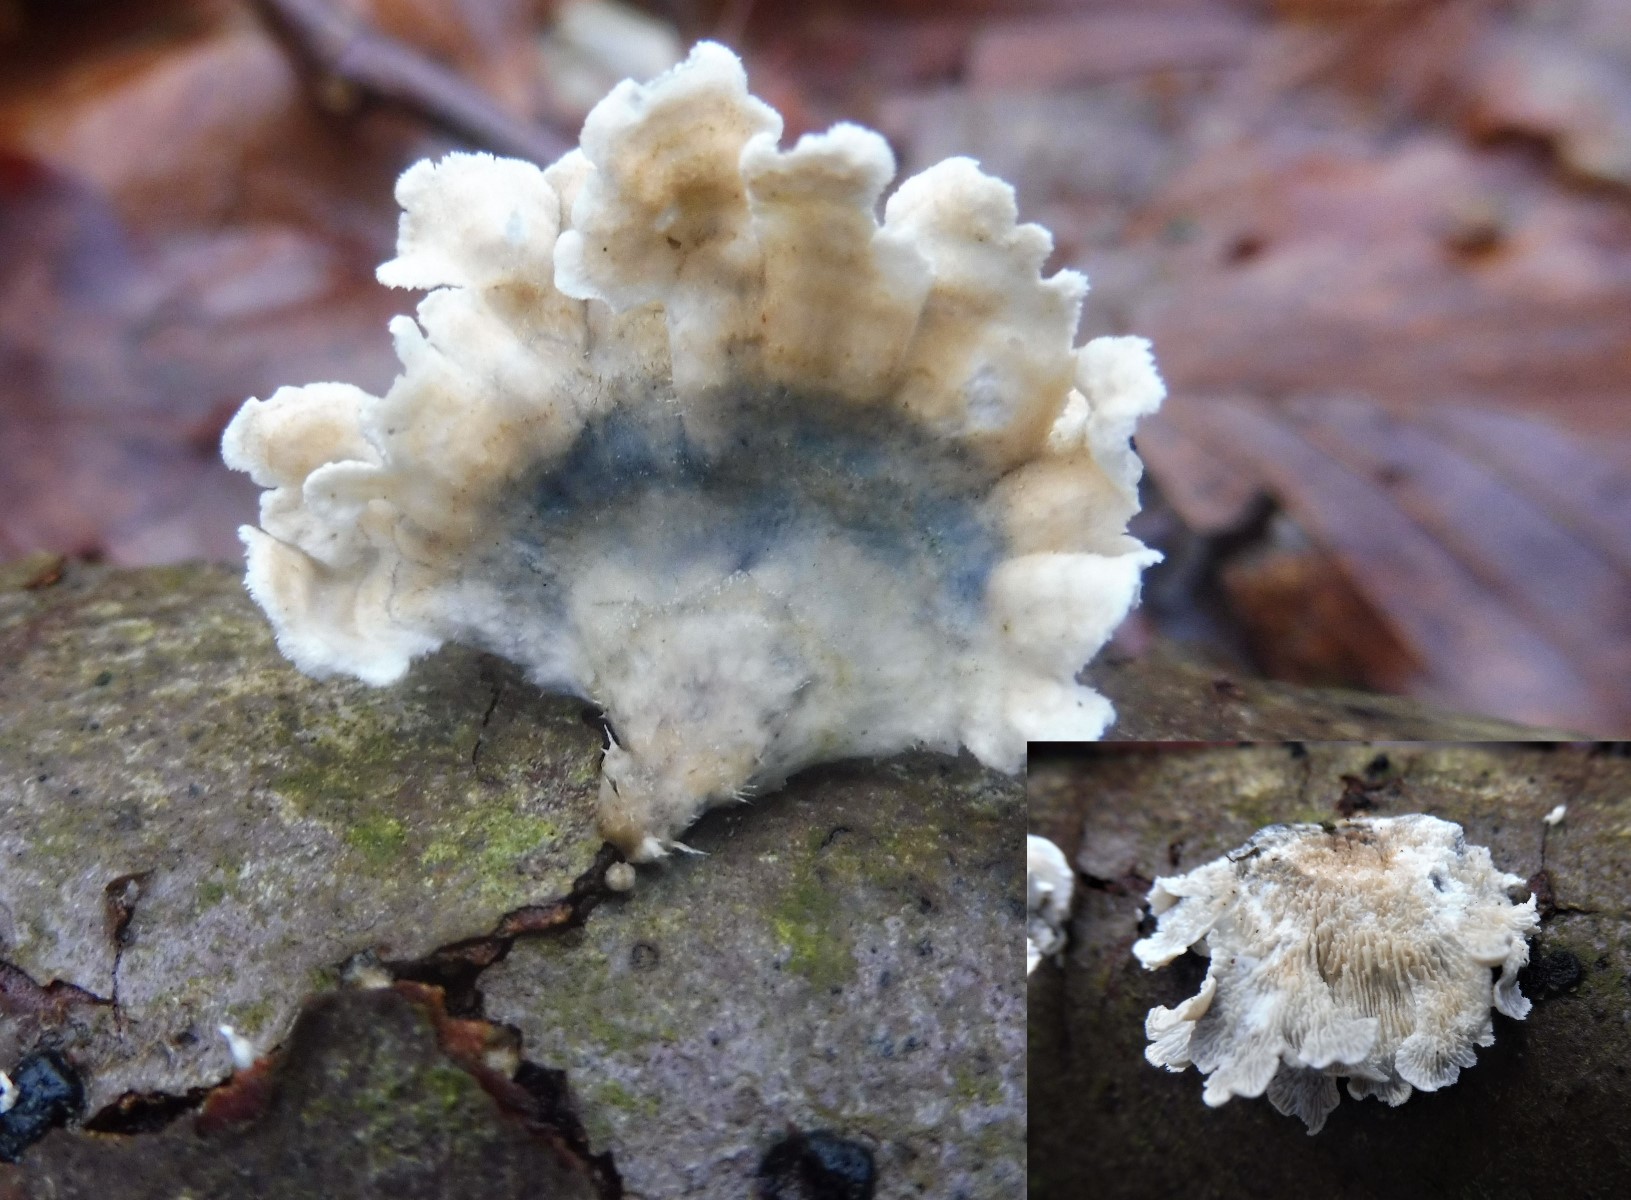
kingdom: Fungi
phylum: Basidiomycota
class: Agaricomycetes
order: Amylocorticiales
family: Amylocorticiaceae
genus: Plicaturopsis
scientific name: Plicaturopsis crispa
